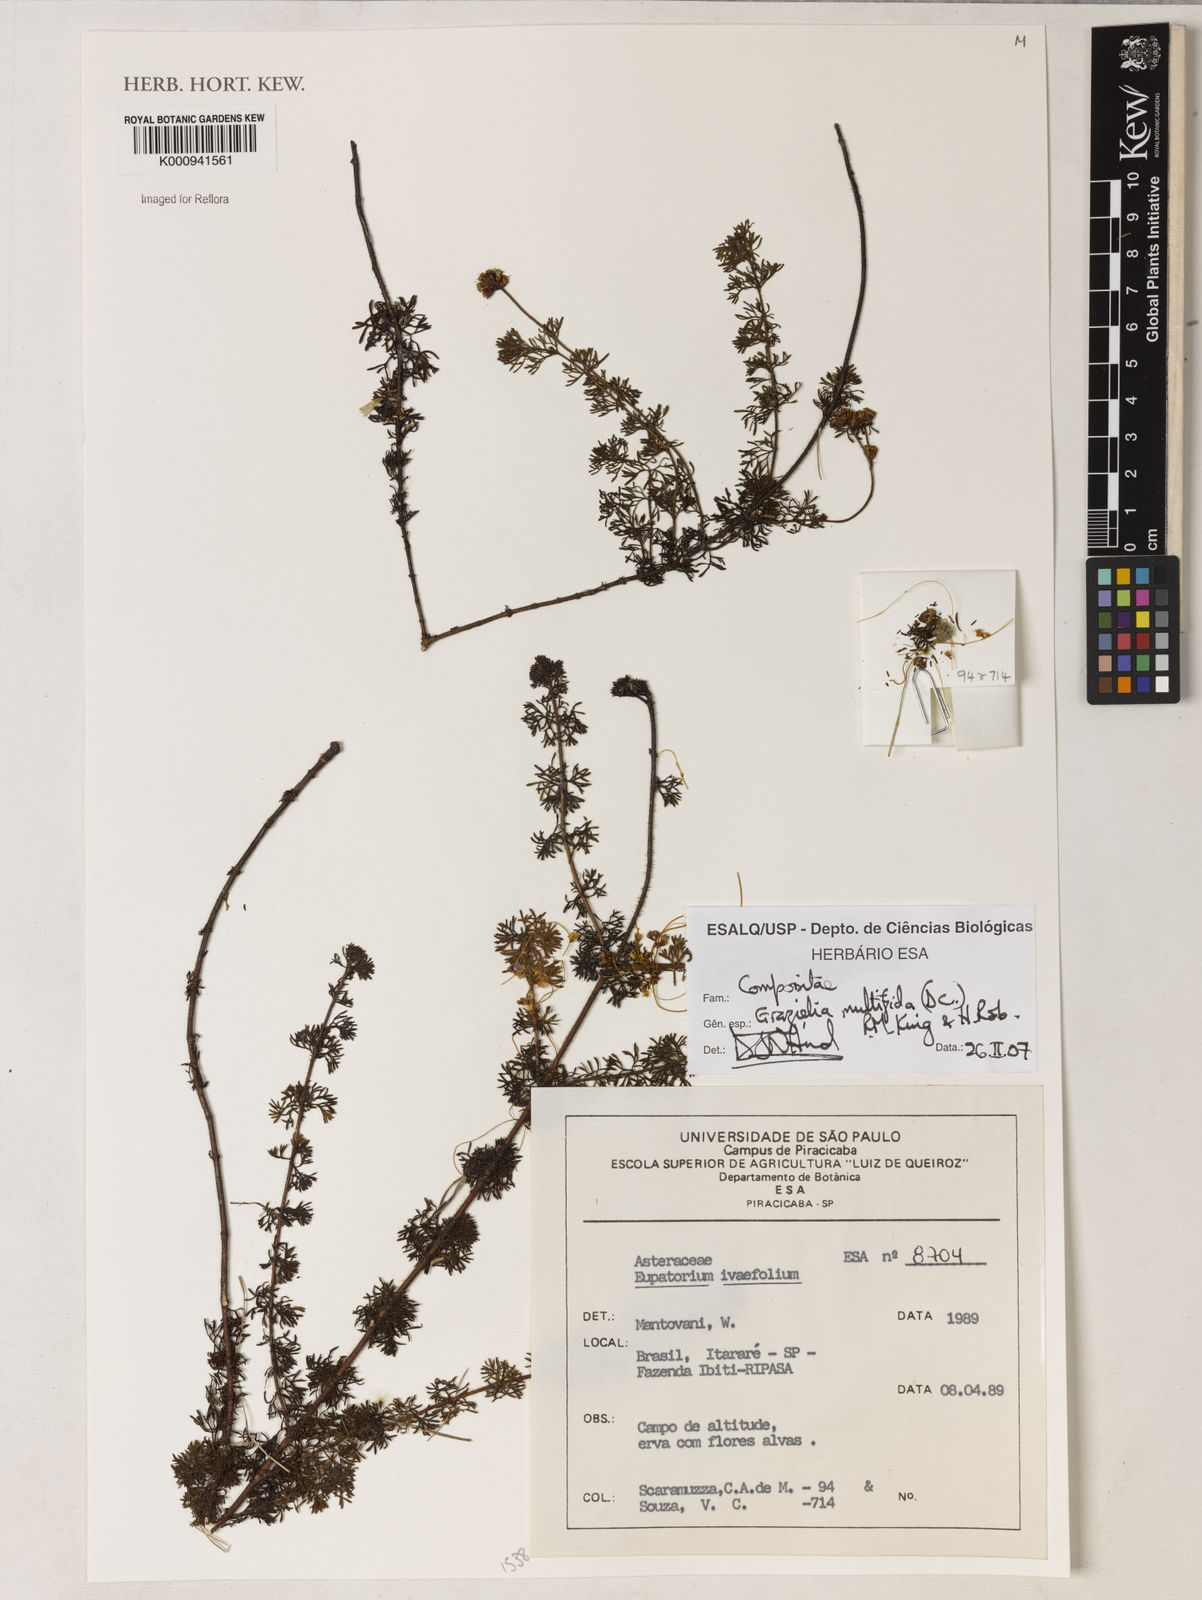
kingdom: Plantae
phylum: Tracheophyta
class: Magnoliopsida
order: Asterales
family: Asteraceae
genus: Grazielia
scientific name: Grazielia multifida
